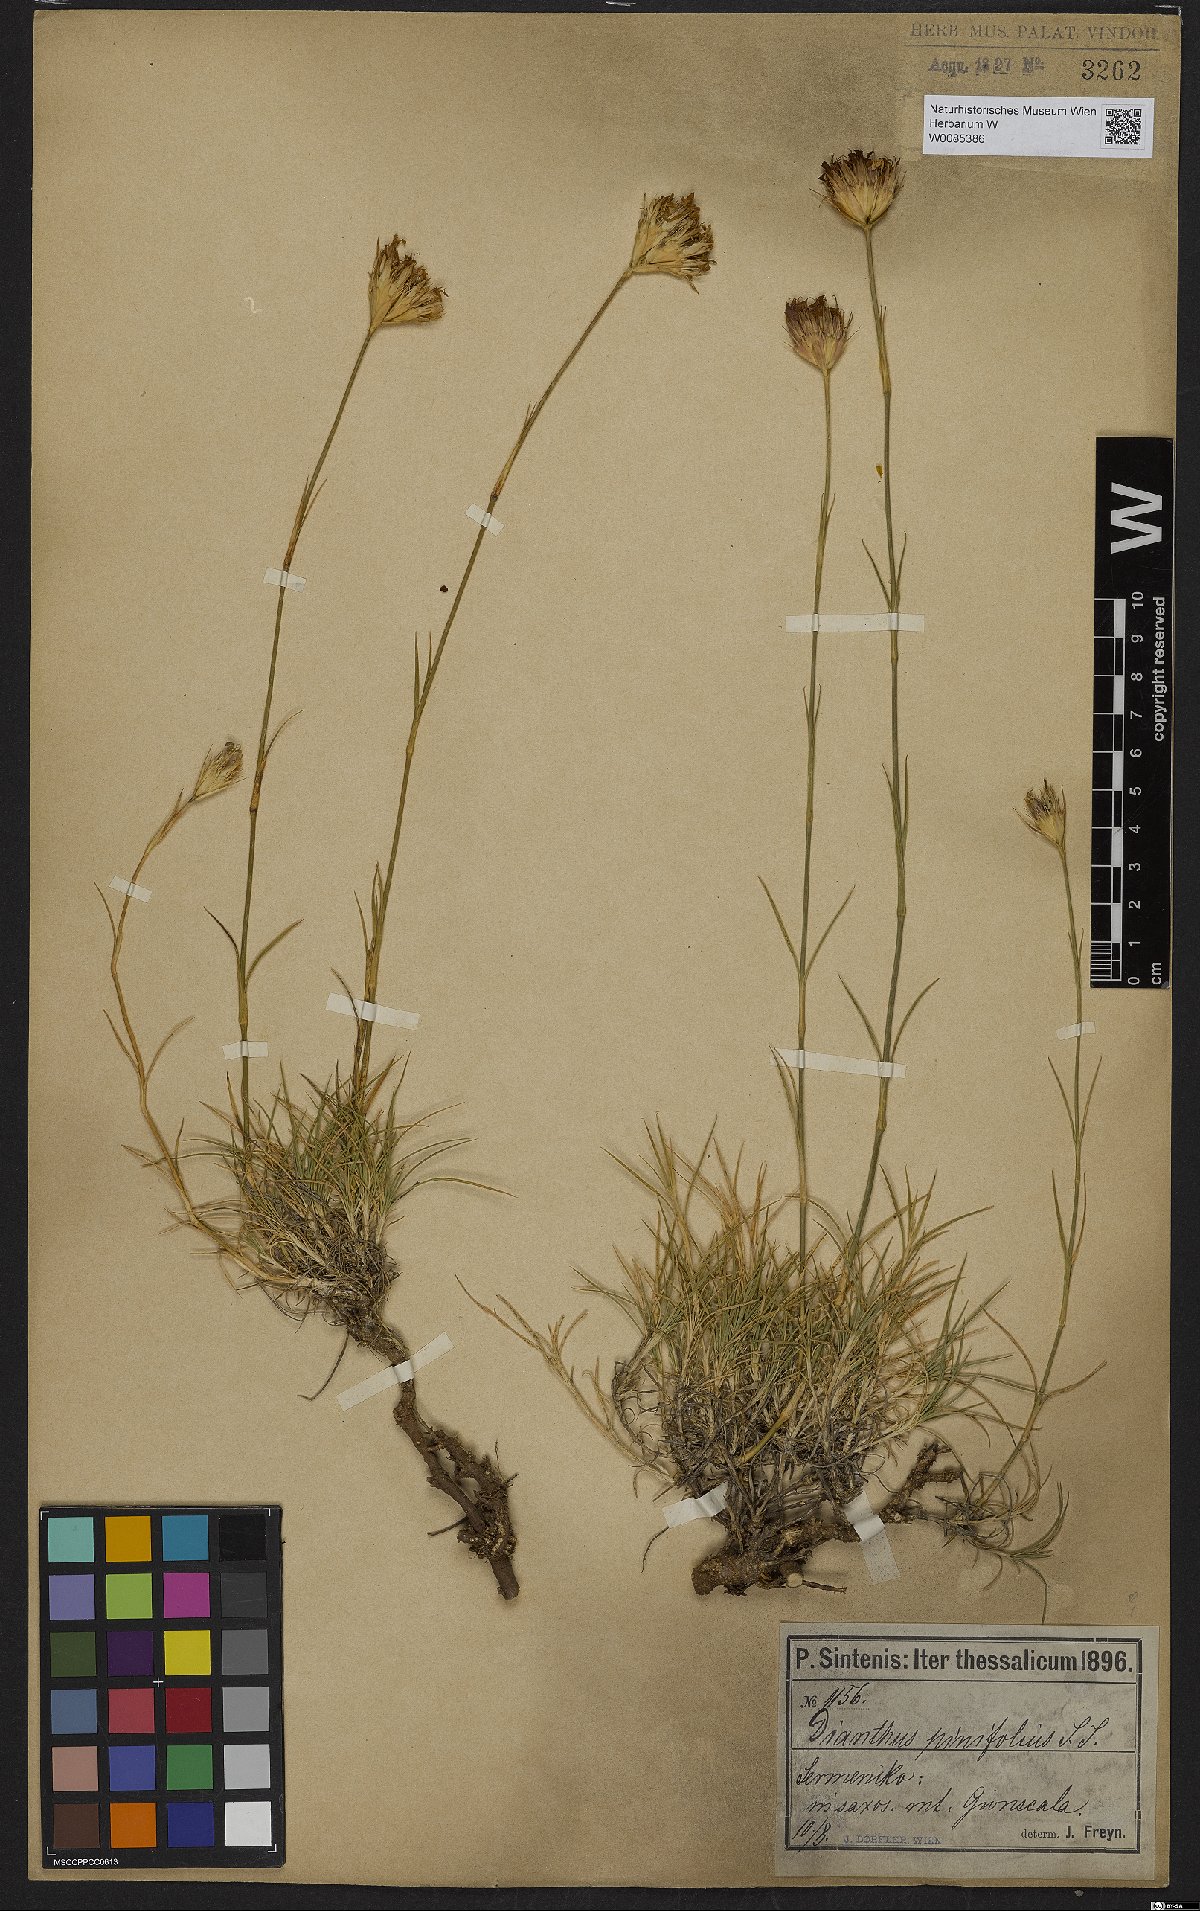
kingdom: Plantae
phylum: Tracheophyta
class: Magnoliopsida
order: Caryophyllales
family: Caryophyllaceae
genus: Dianthus
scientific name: Dianthus pinifolius
